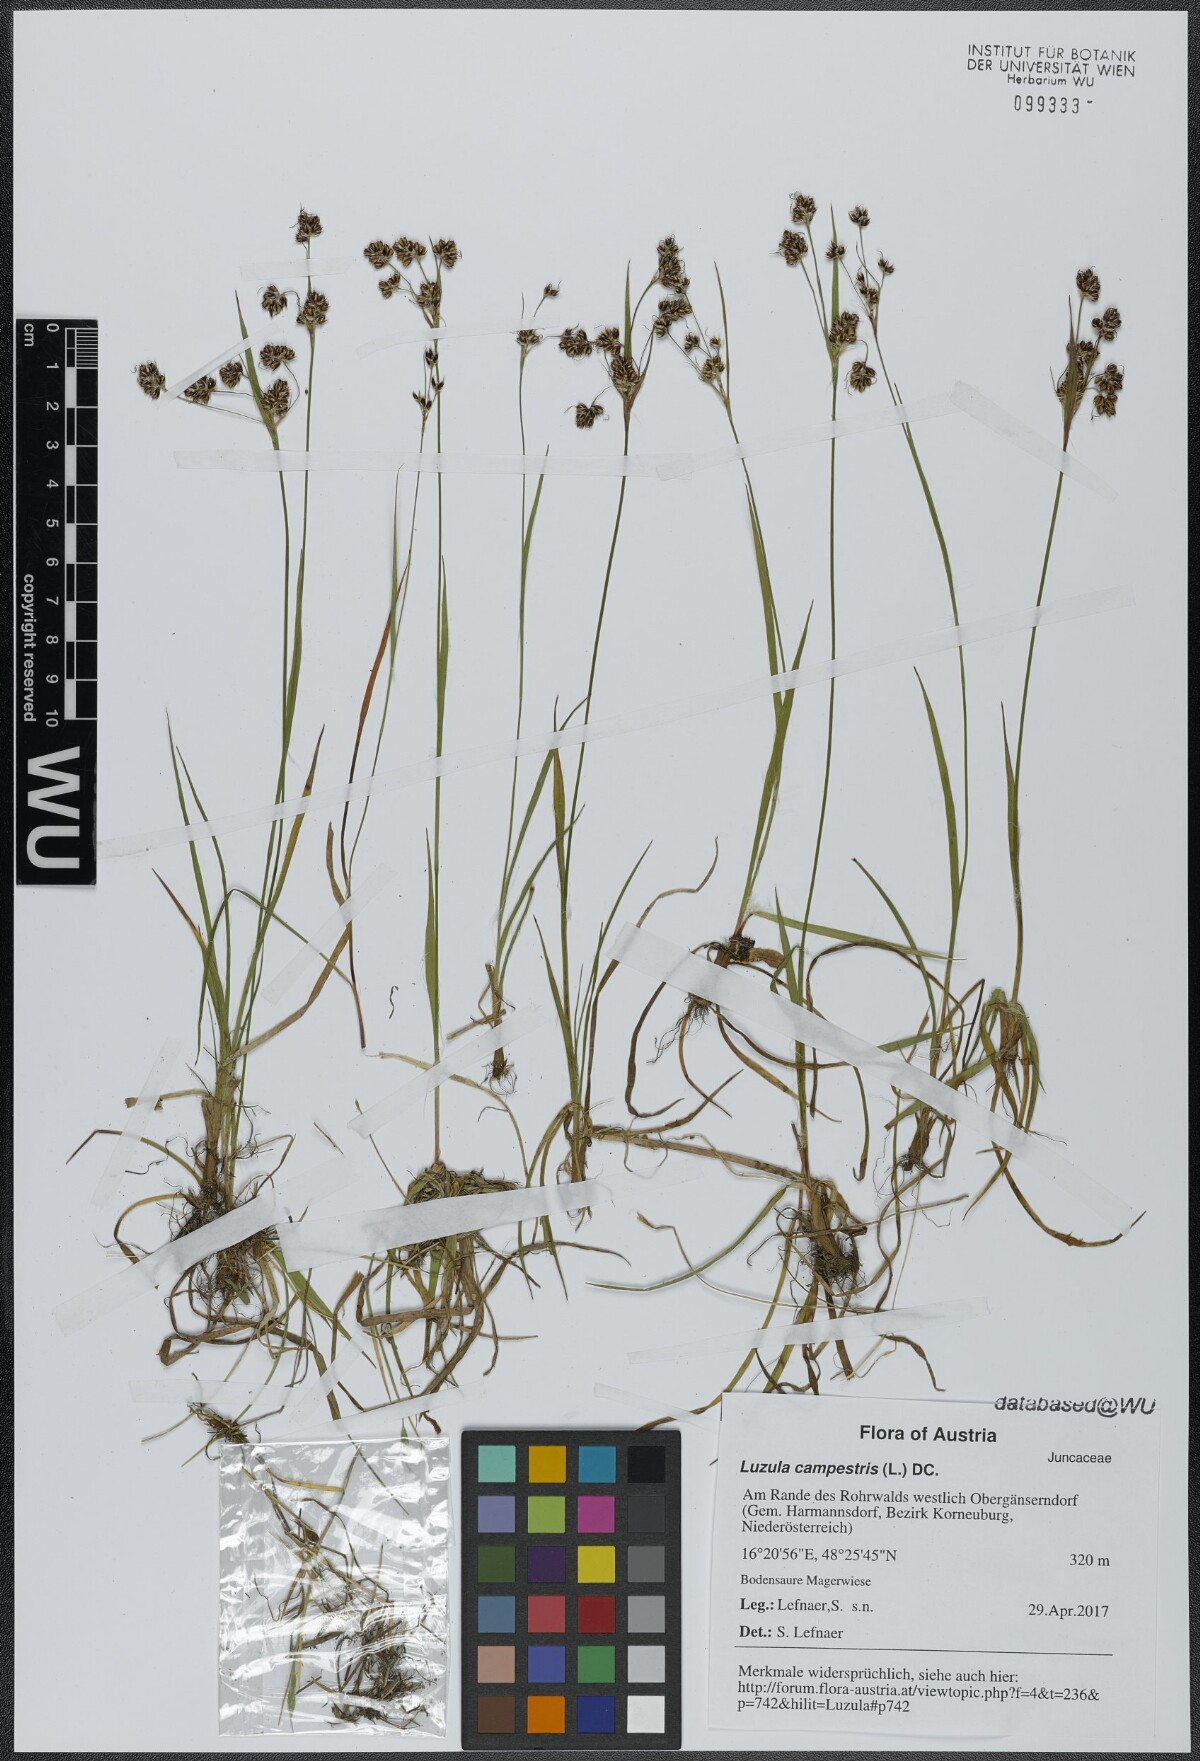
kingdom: Plantae
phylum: Tracheophyta
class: Liliopsida
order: Poales
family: Juncaceae
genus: Luzula
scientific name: Luzula campestris
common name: Field wood-rush
